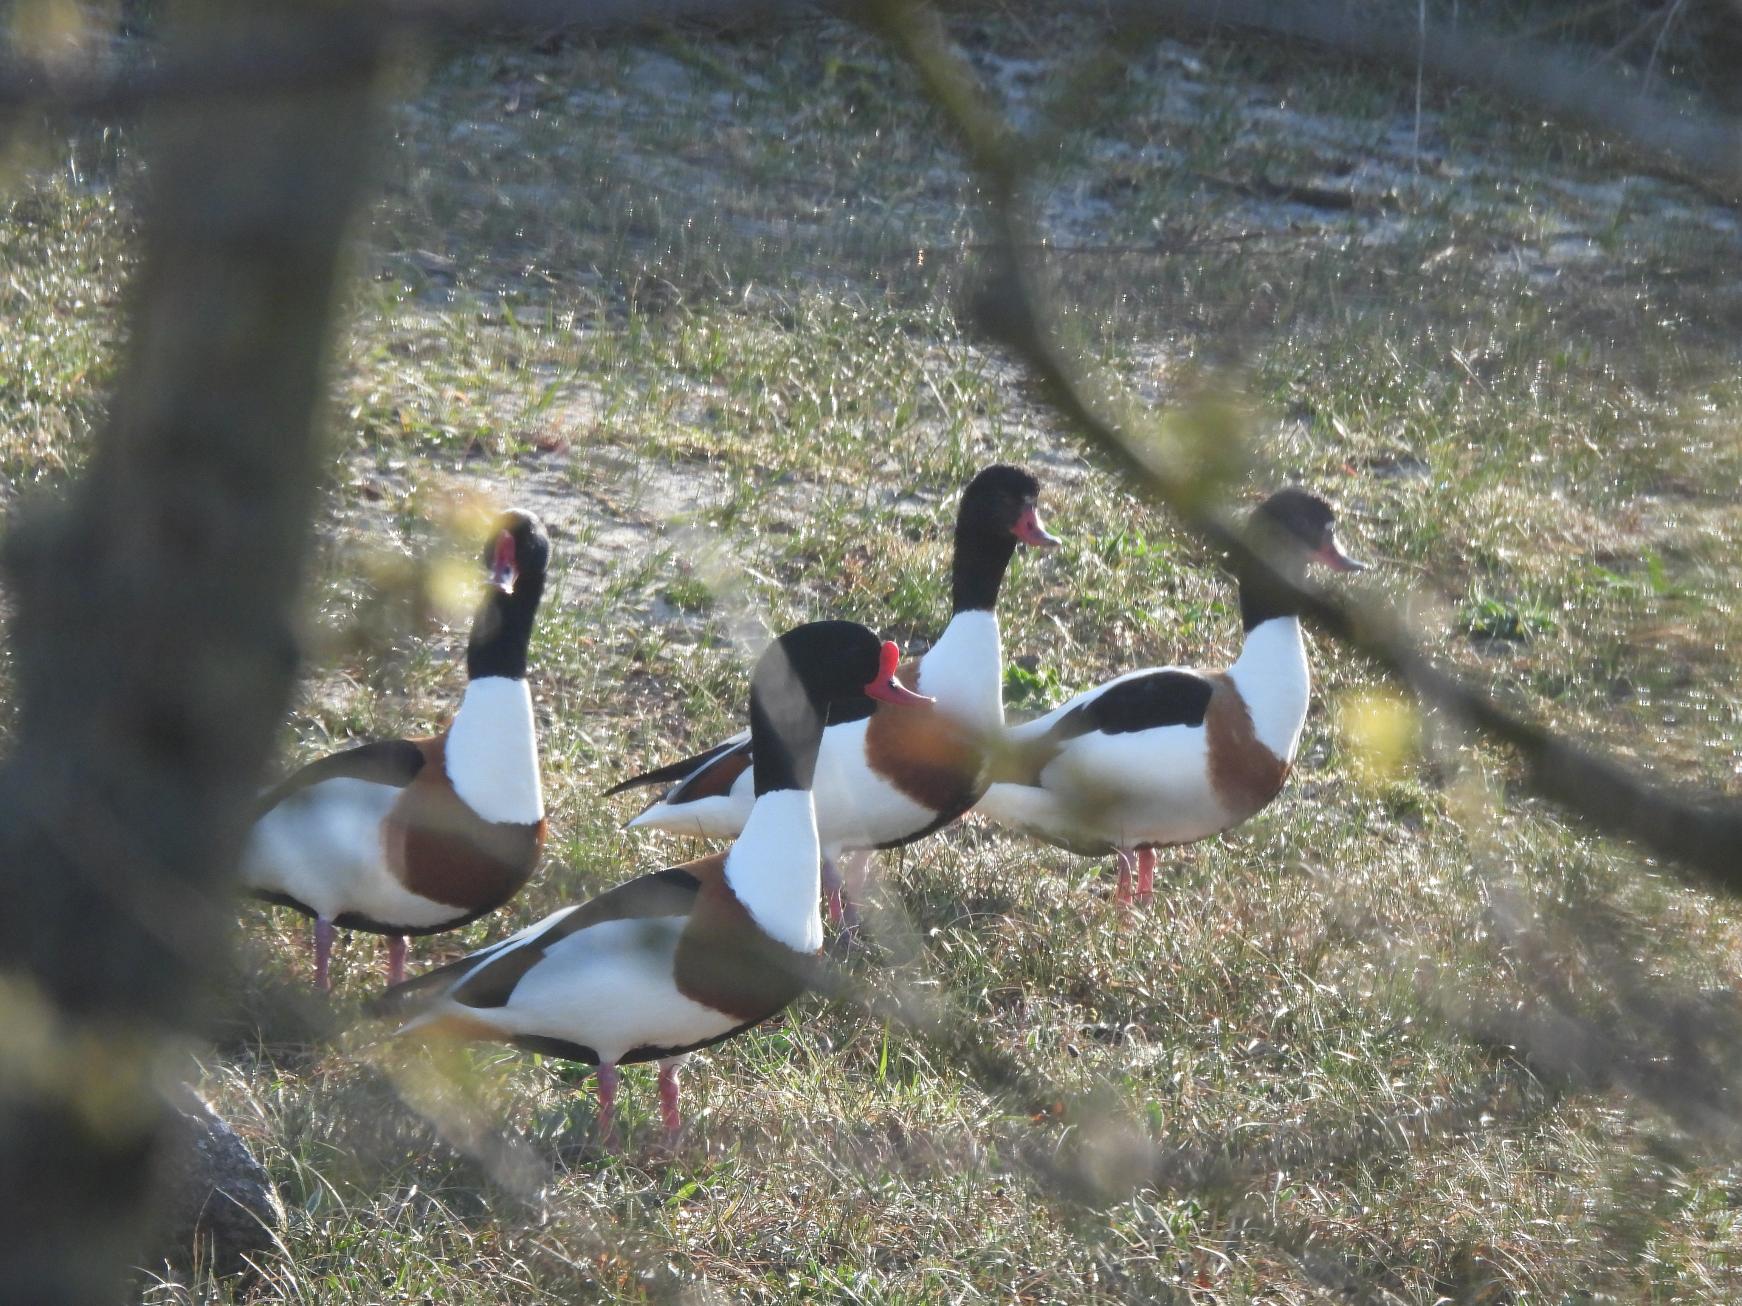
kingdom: Animalia
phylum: Chordata
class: Aves
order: Anseriformes
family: Anatidae
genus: Tadorna
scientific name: Tadorna tadorna
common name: Gravand
